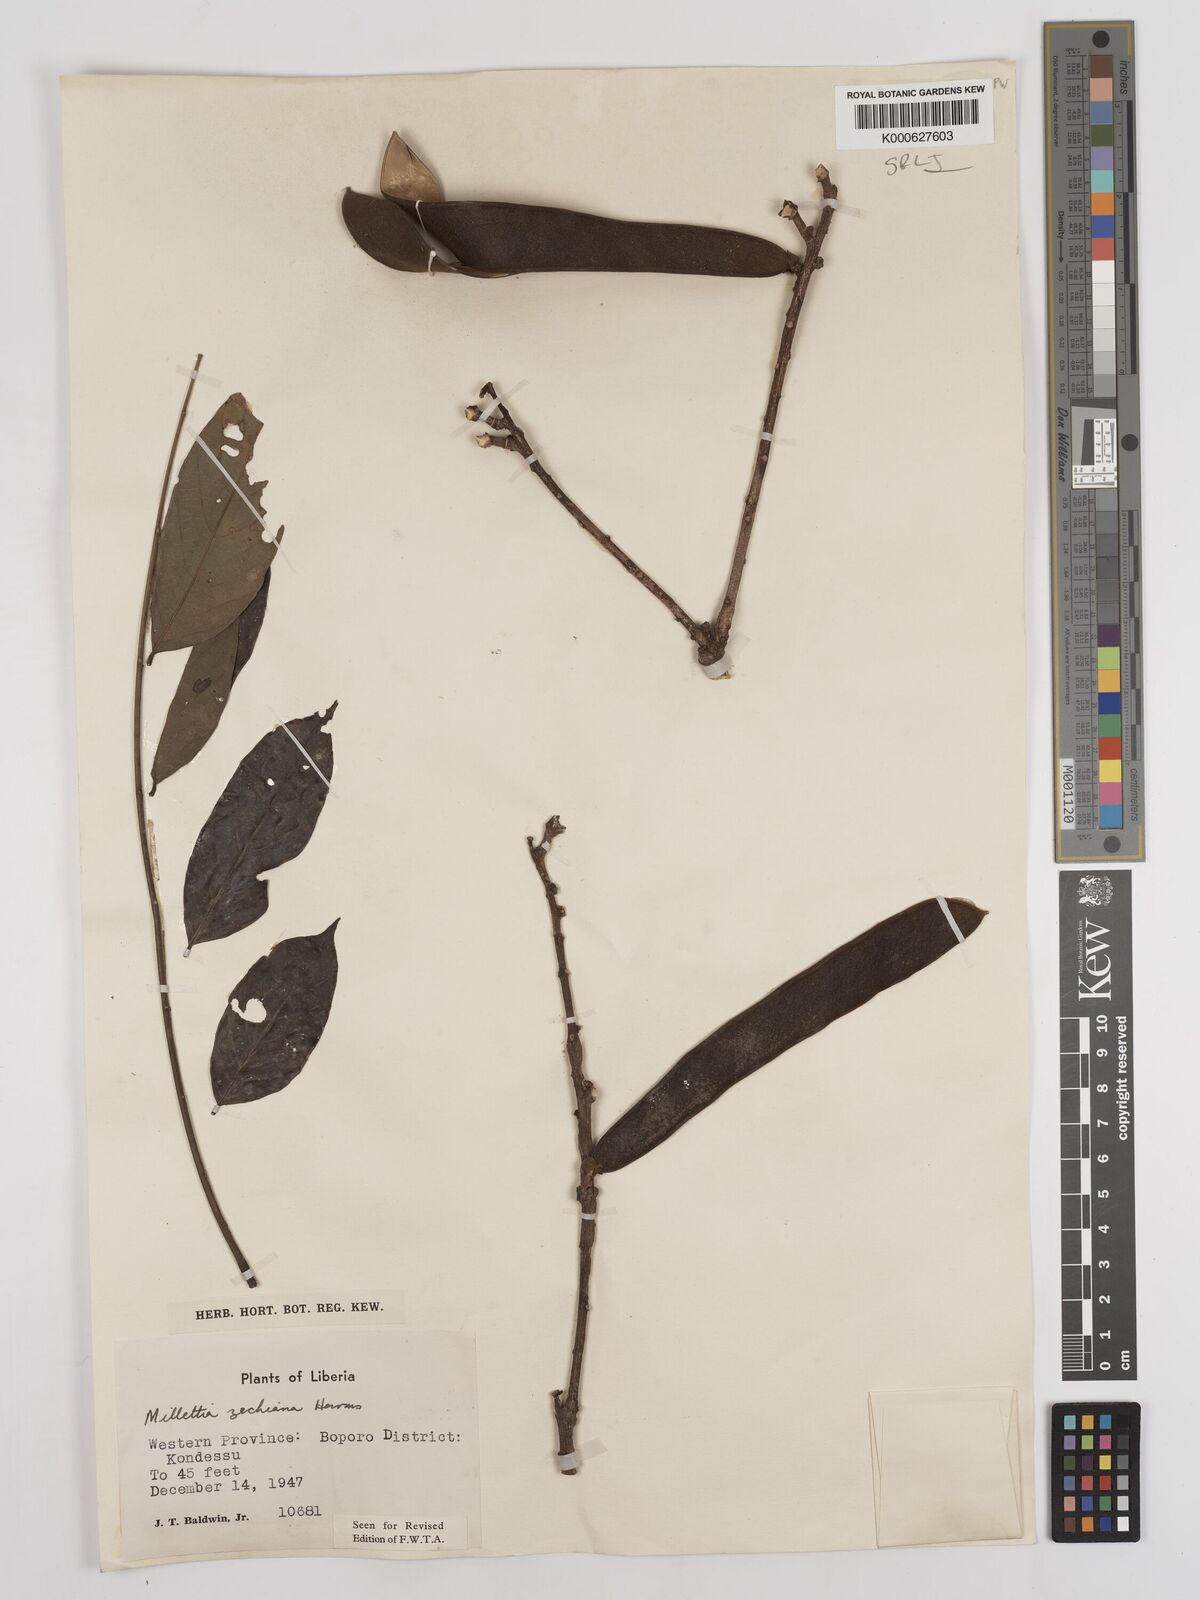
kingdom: Plantae
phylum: Tracheophyta
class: Magnoliopsida
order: Fabales
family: Fabaceae
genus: Millettia
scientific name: Millettia zechiana
